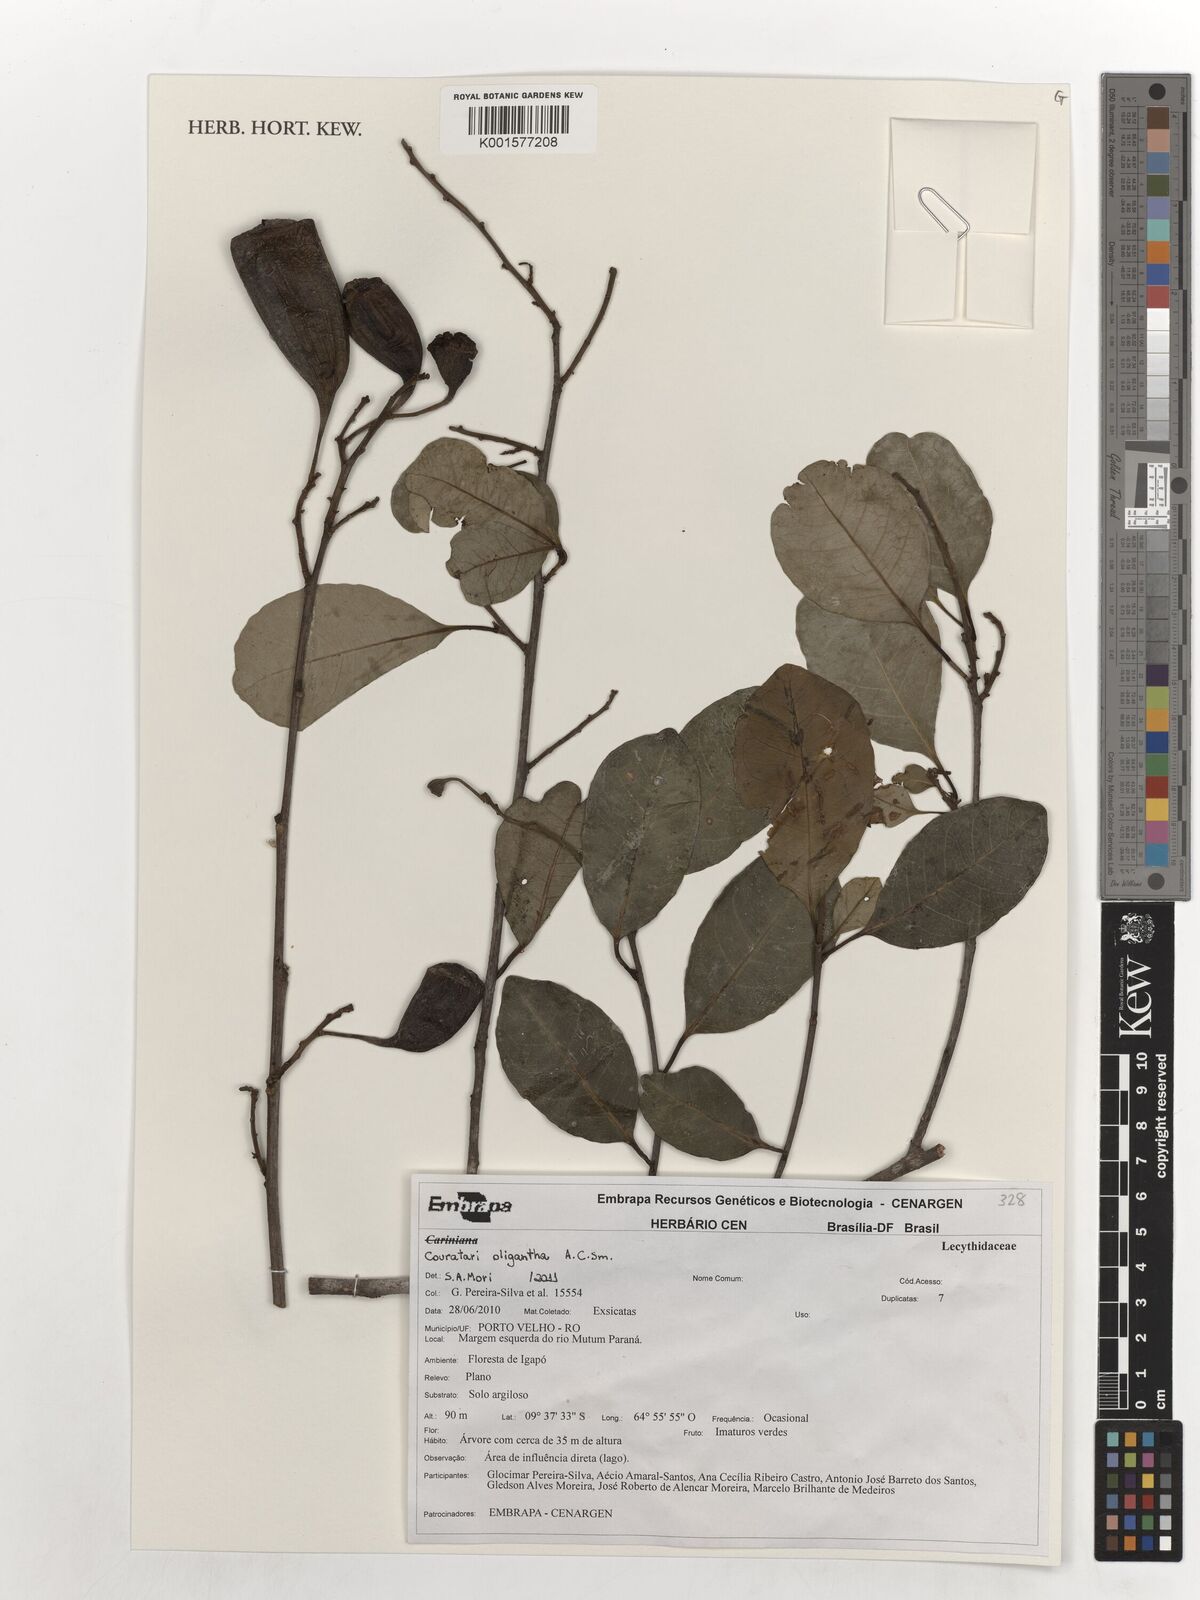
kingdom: Plantae
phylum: Tracheophyta
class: Magnoliopsida
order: Ericales
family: Lecythidaceae
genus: Couratari
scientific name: Couratari oligantha
